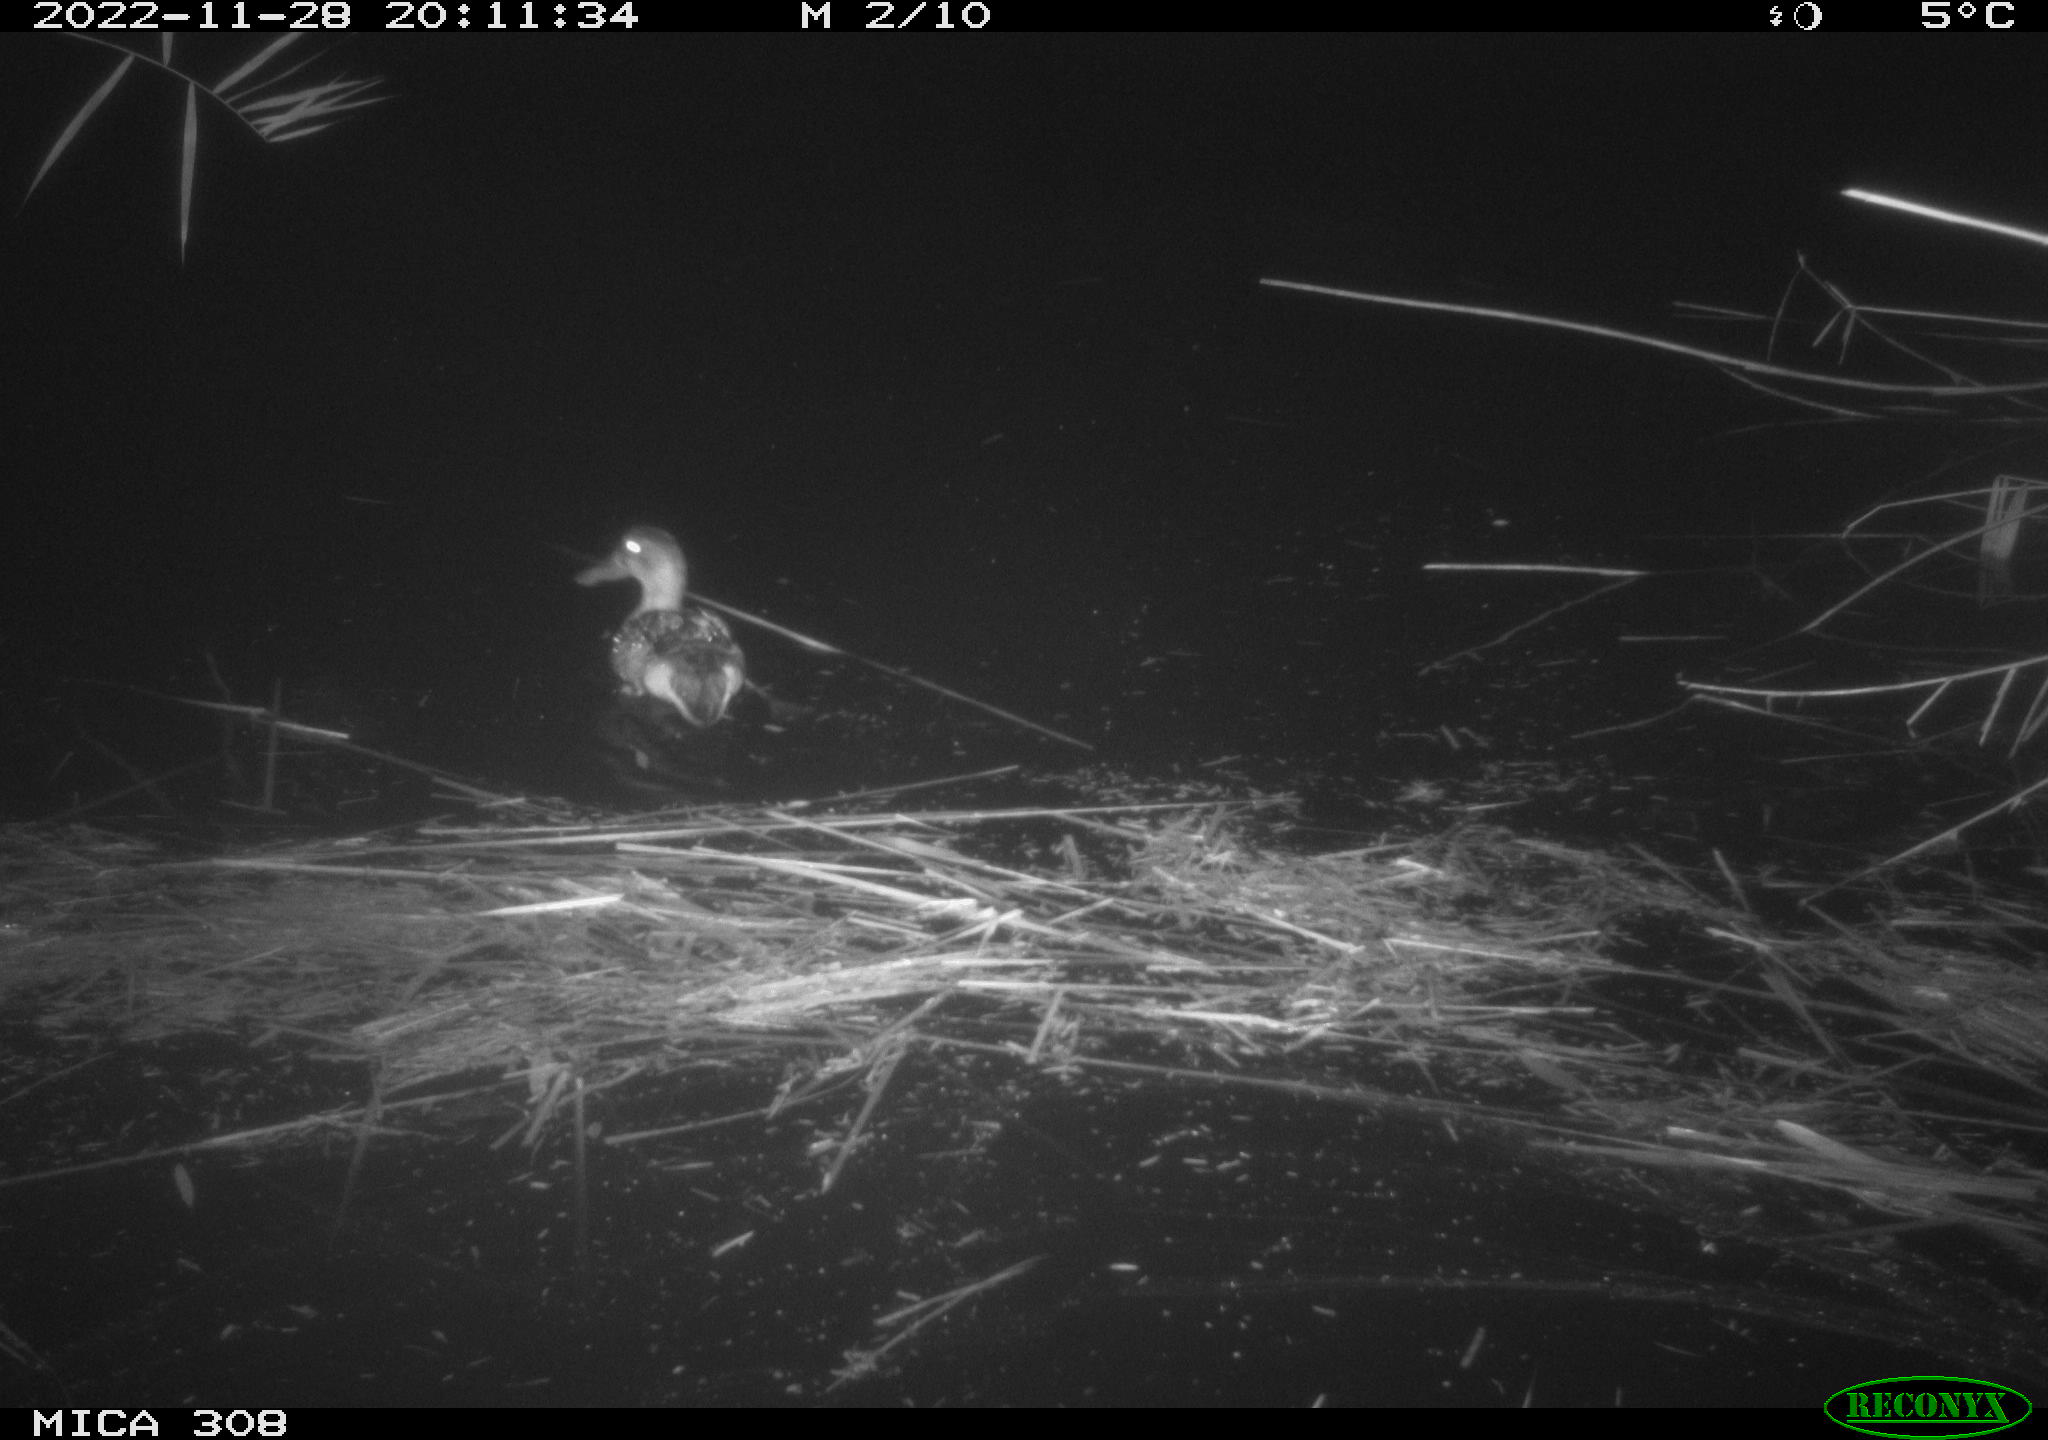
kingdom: Animalia
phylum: Chordata
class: Aves
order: Anseriformes
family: Anatidae
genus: Anas
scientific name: Anas
